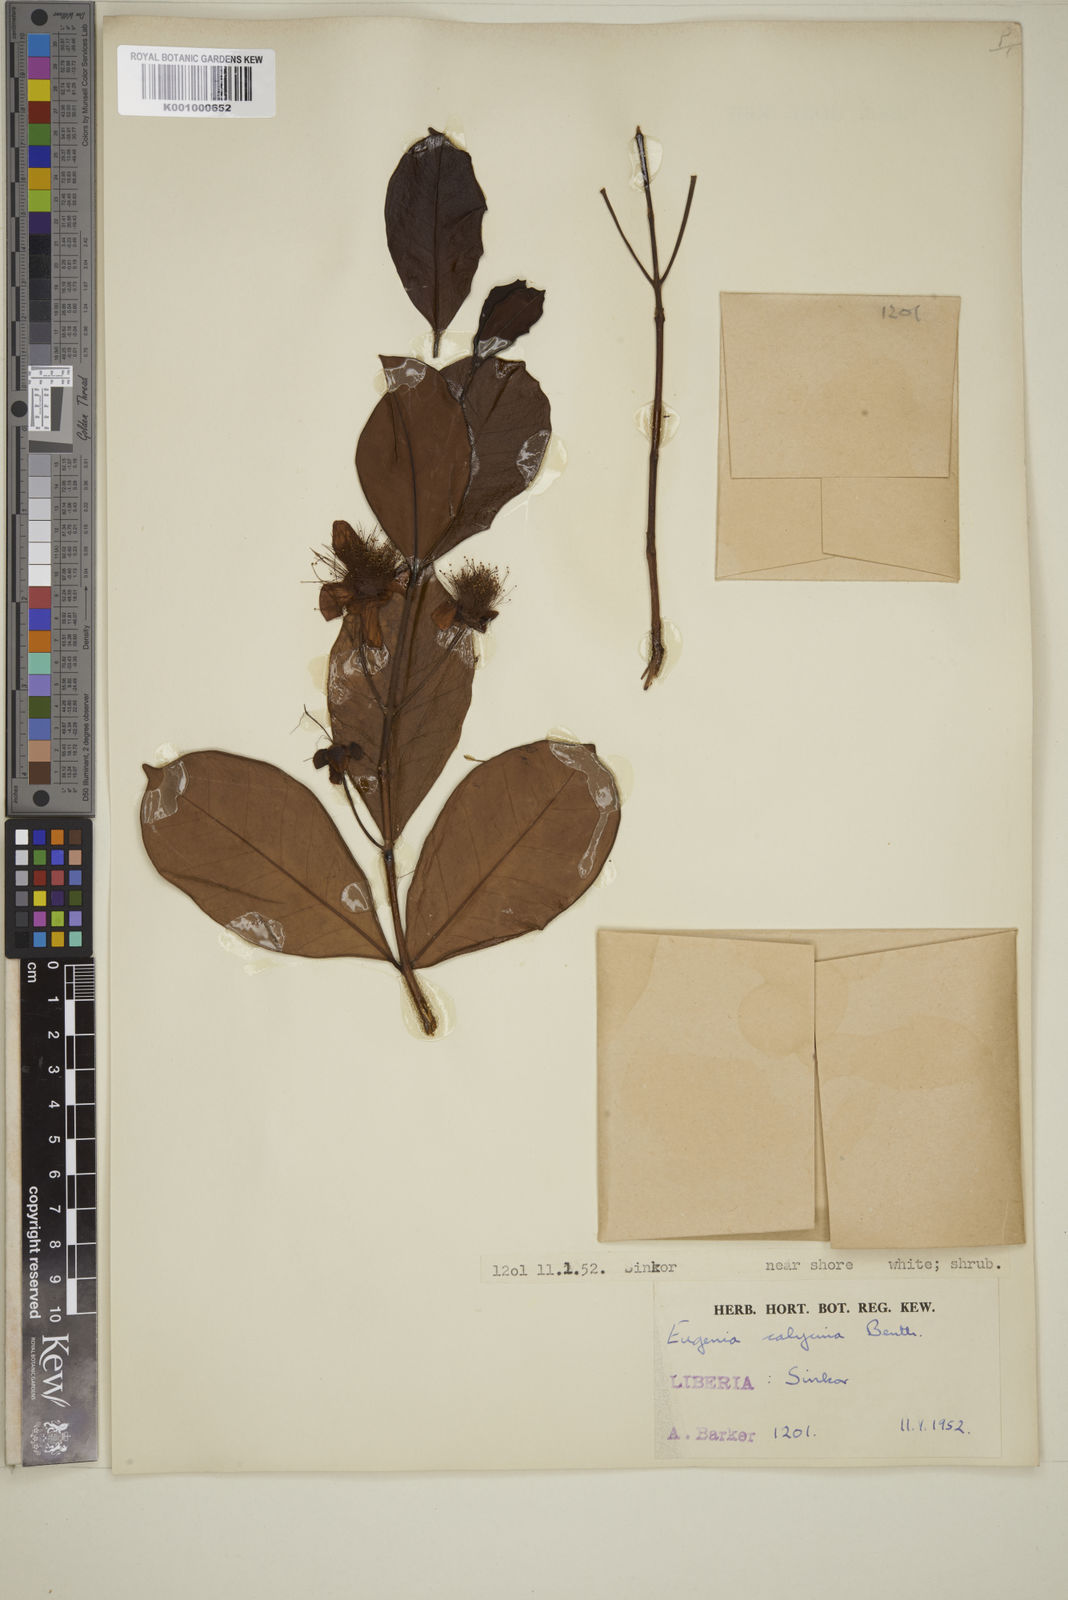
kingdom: Plantae
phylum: Tracheophyta
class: Magnoliopsida
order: Myrtales
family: Myrtaceae
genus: Eugenia
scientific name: Eugenia liberiana
